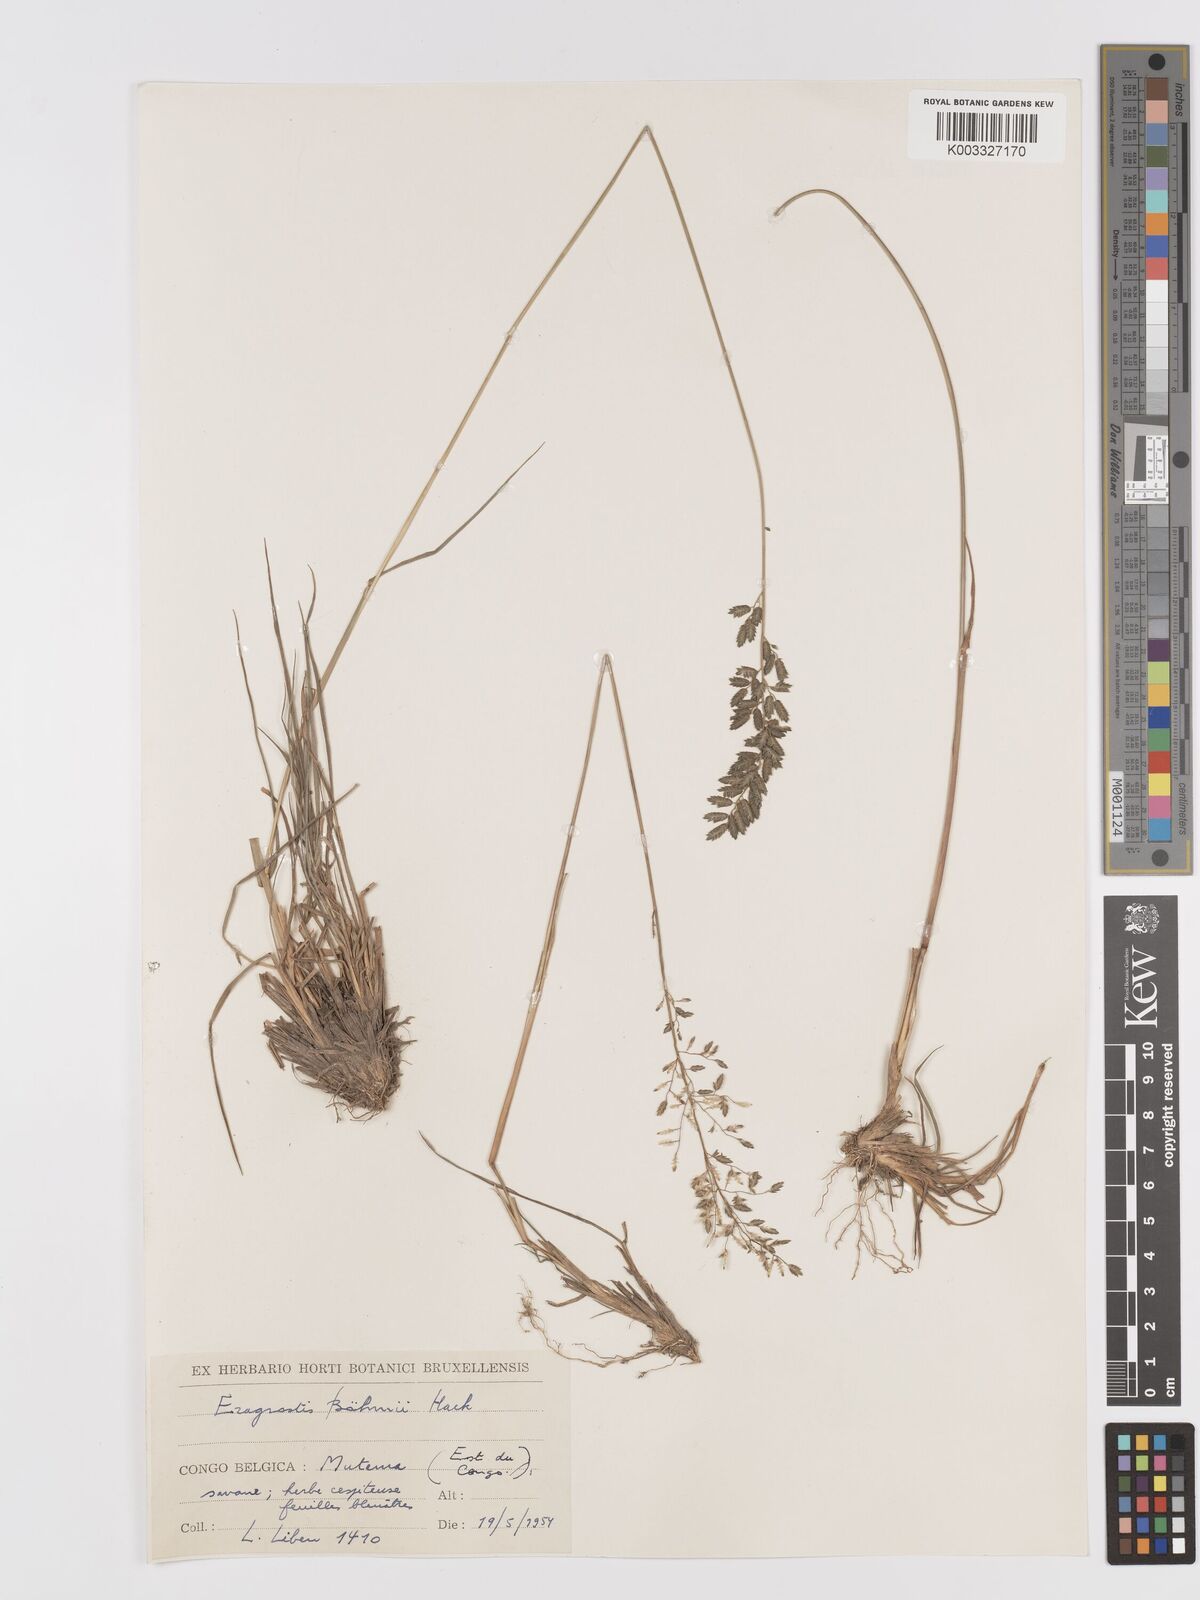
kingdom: Plantae
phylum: Tracheophyta
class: Liliopsida
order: Poales
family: Poaceae
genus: Eragrostis
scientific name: Eragrostis racemosa
